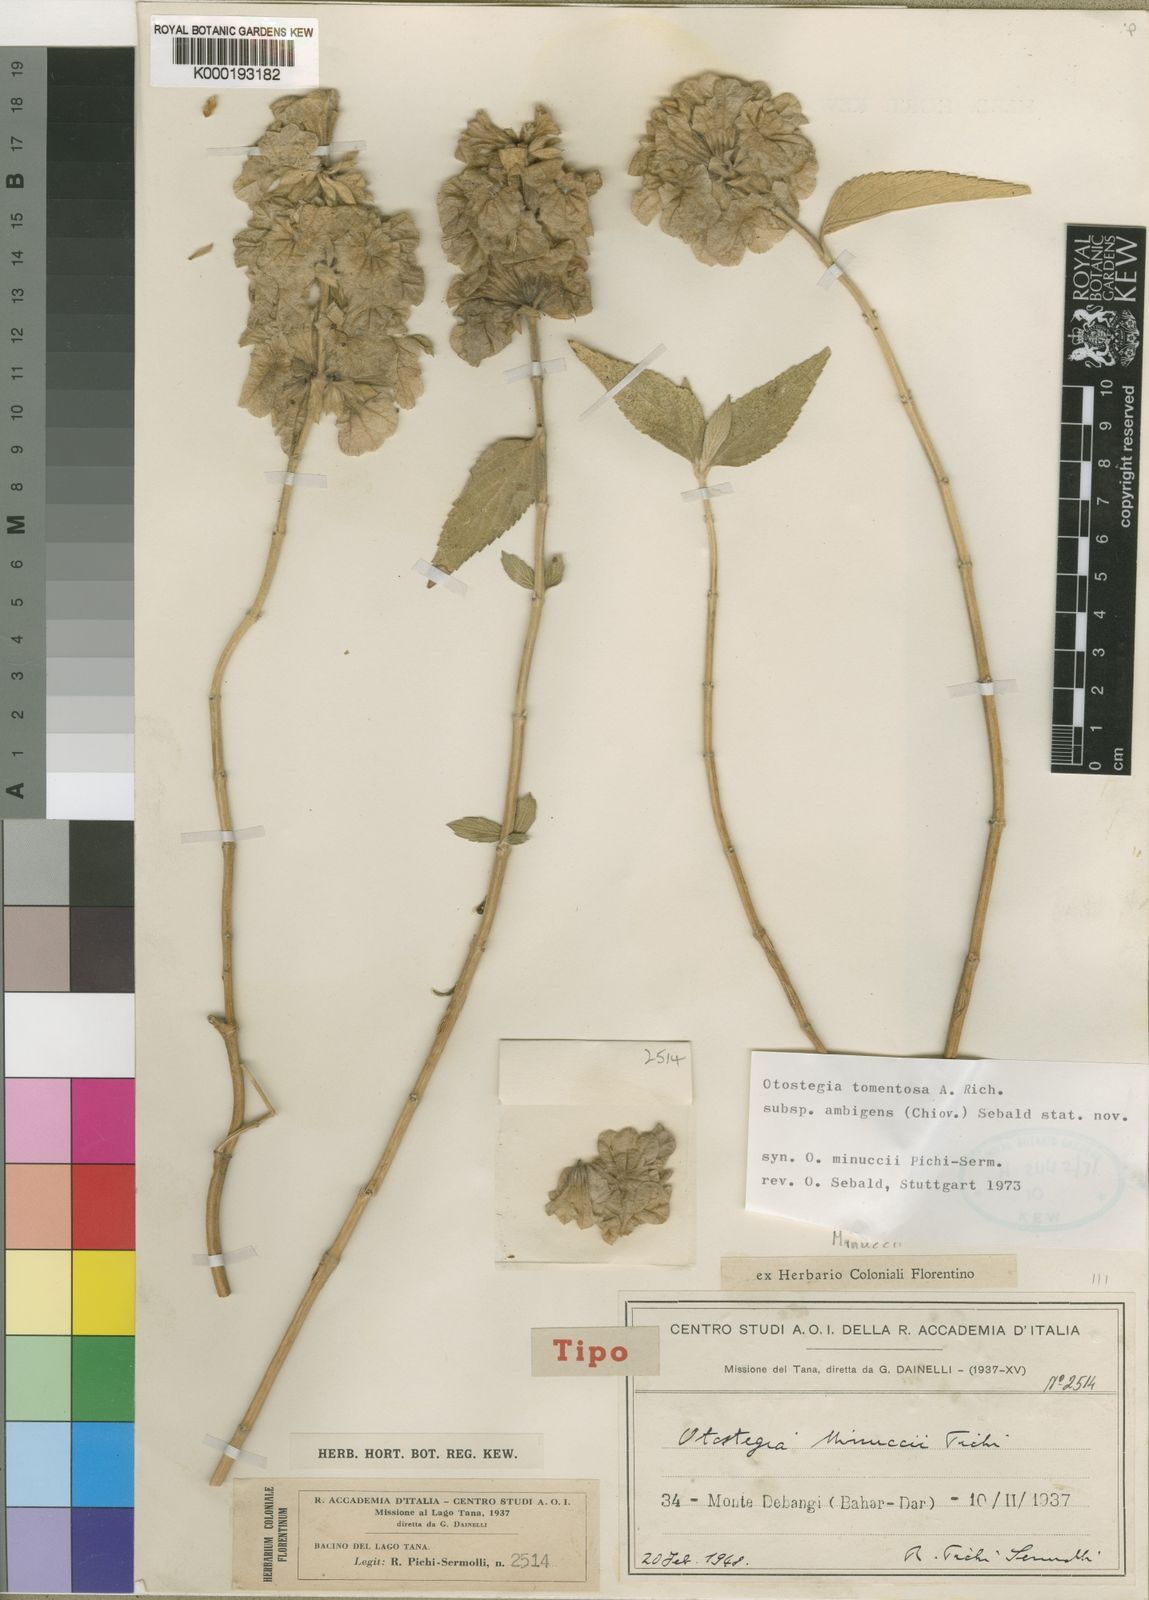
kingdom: Plantae
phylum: Tracheophyta
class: Magnoliopsida
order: Lamiales
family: Lamiaceae
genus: Otostegia
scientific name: Otostegia tomentosa
